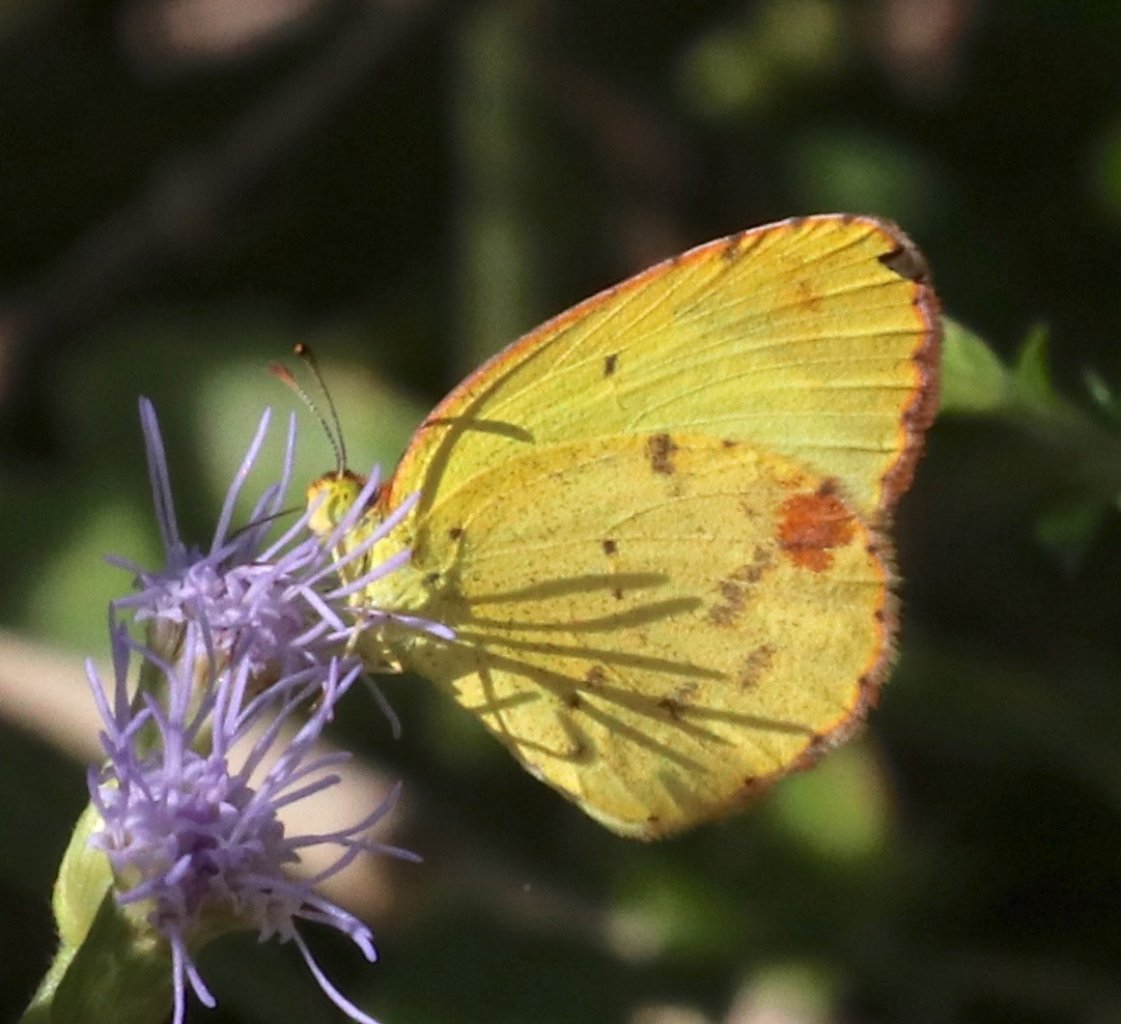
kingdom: Animalia
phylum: Arthropoda
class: Insecta
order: Lepidoptera
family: Pieridae
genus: Pyrisitia
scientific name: Pyrisitia lisa
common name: Little Yellow
